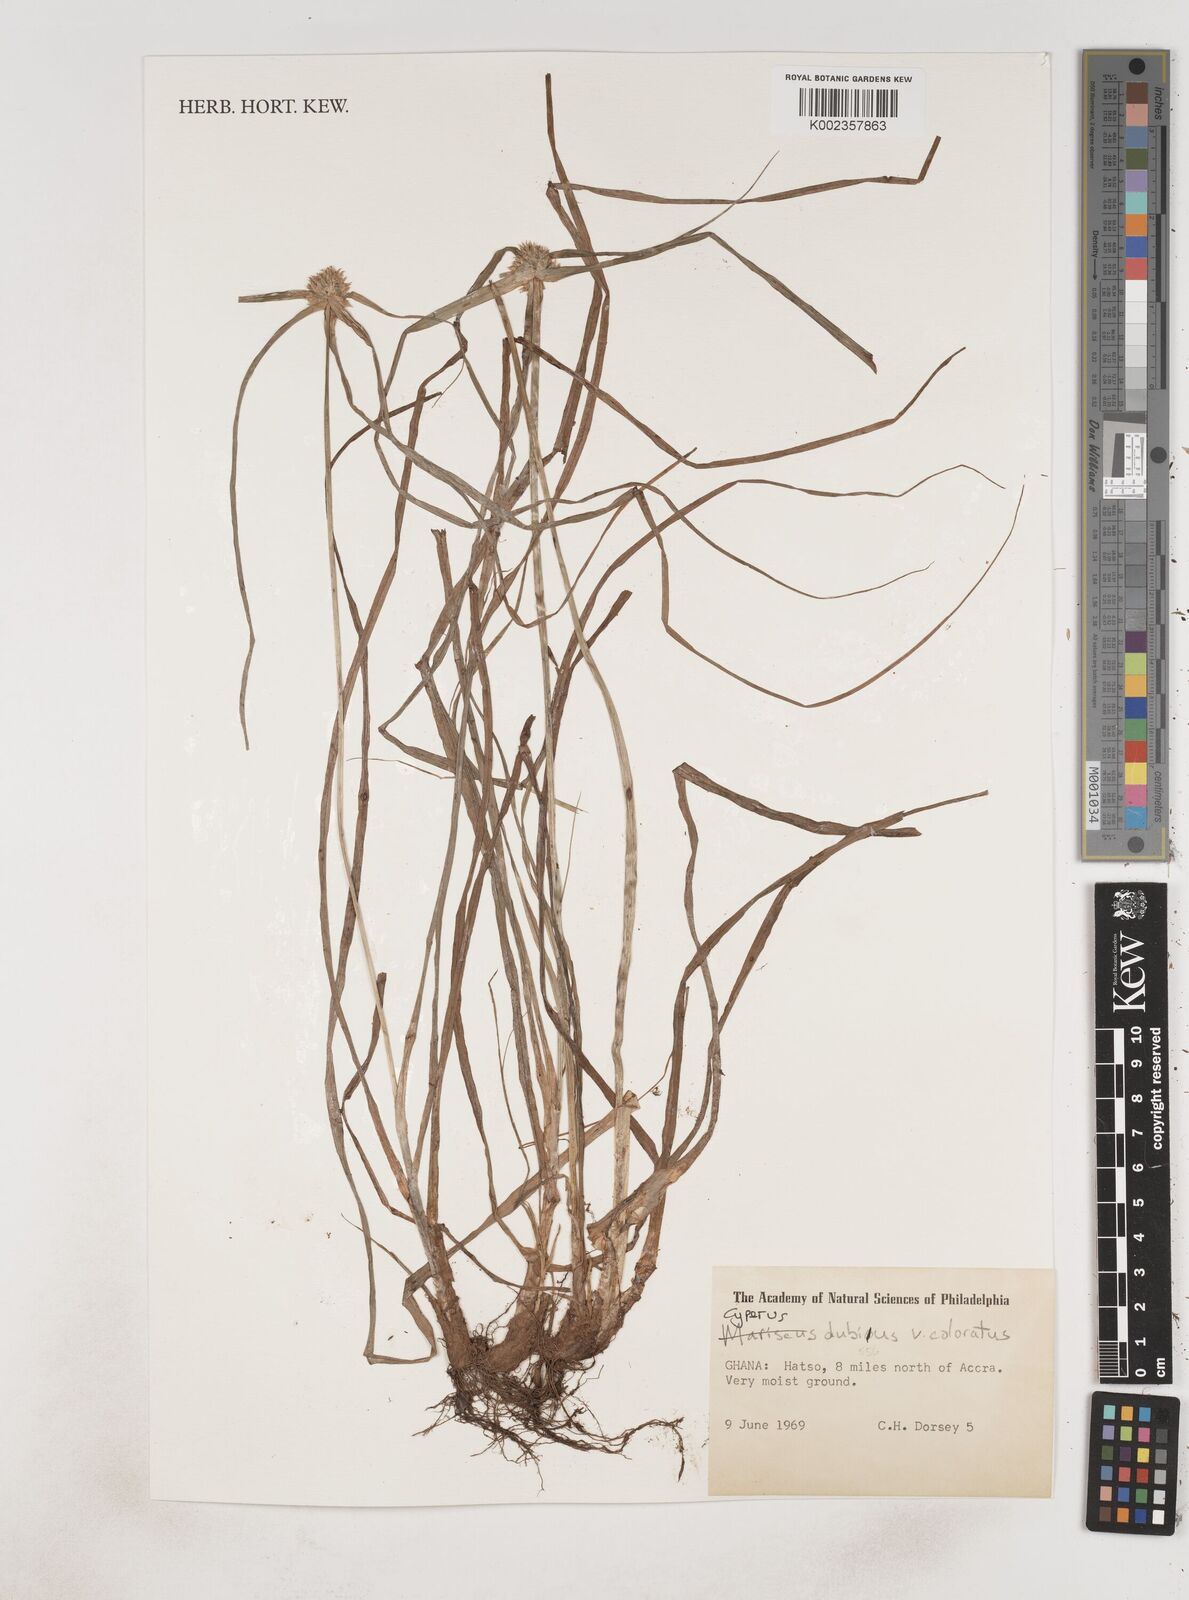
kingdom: Plantae
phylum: Tracheophyta
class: Liliopsida
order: Poales
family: Cyperaceae
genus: Cyperus
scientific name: Cyperus dubius
